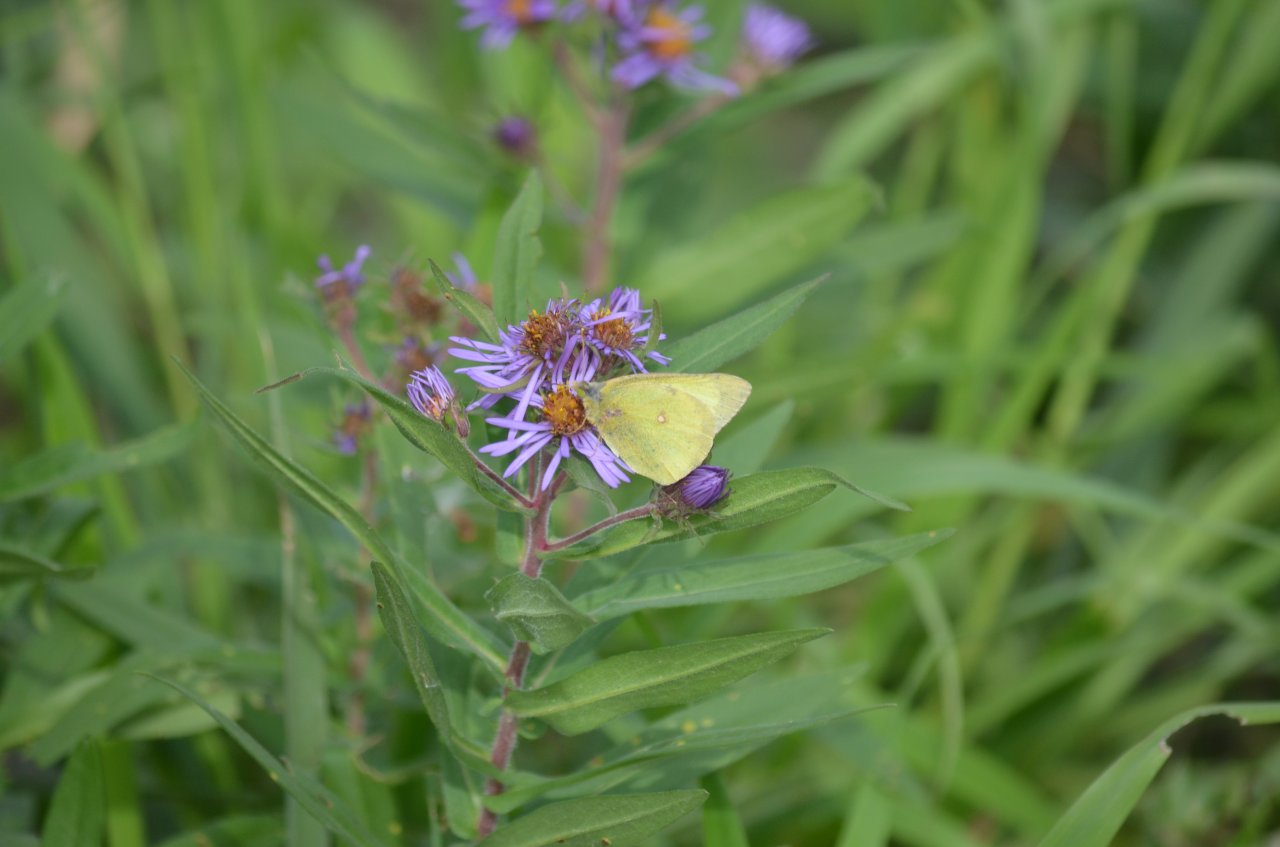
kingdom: Animalia
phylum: Arthropoda
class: Insecta
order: Lepidoptera
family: Pieridae
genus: Colias
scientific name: Colias philodice
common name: Clouded Sulphur
